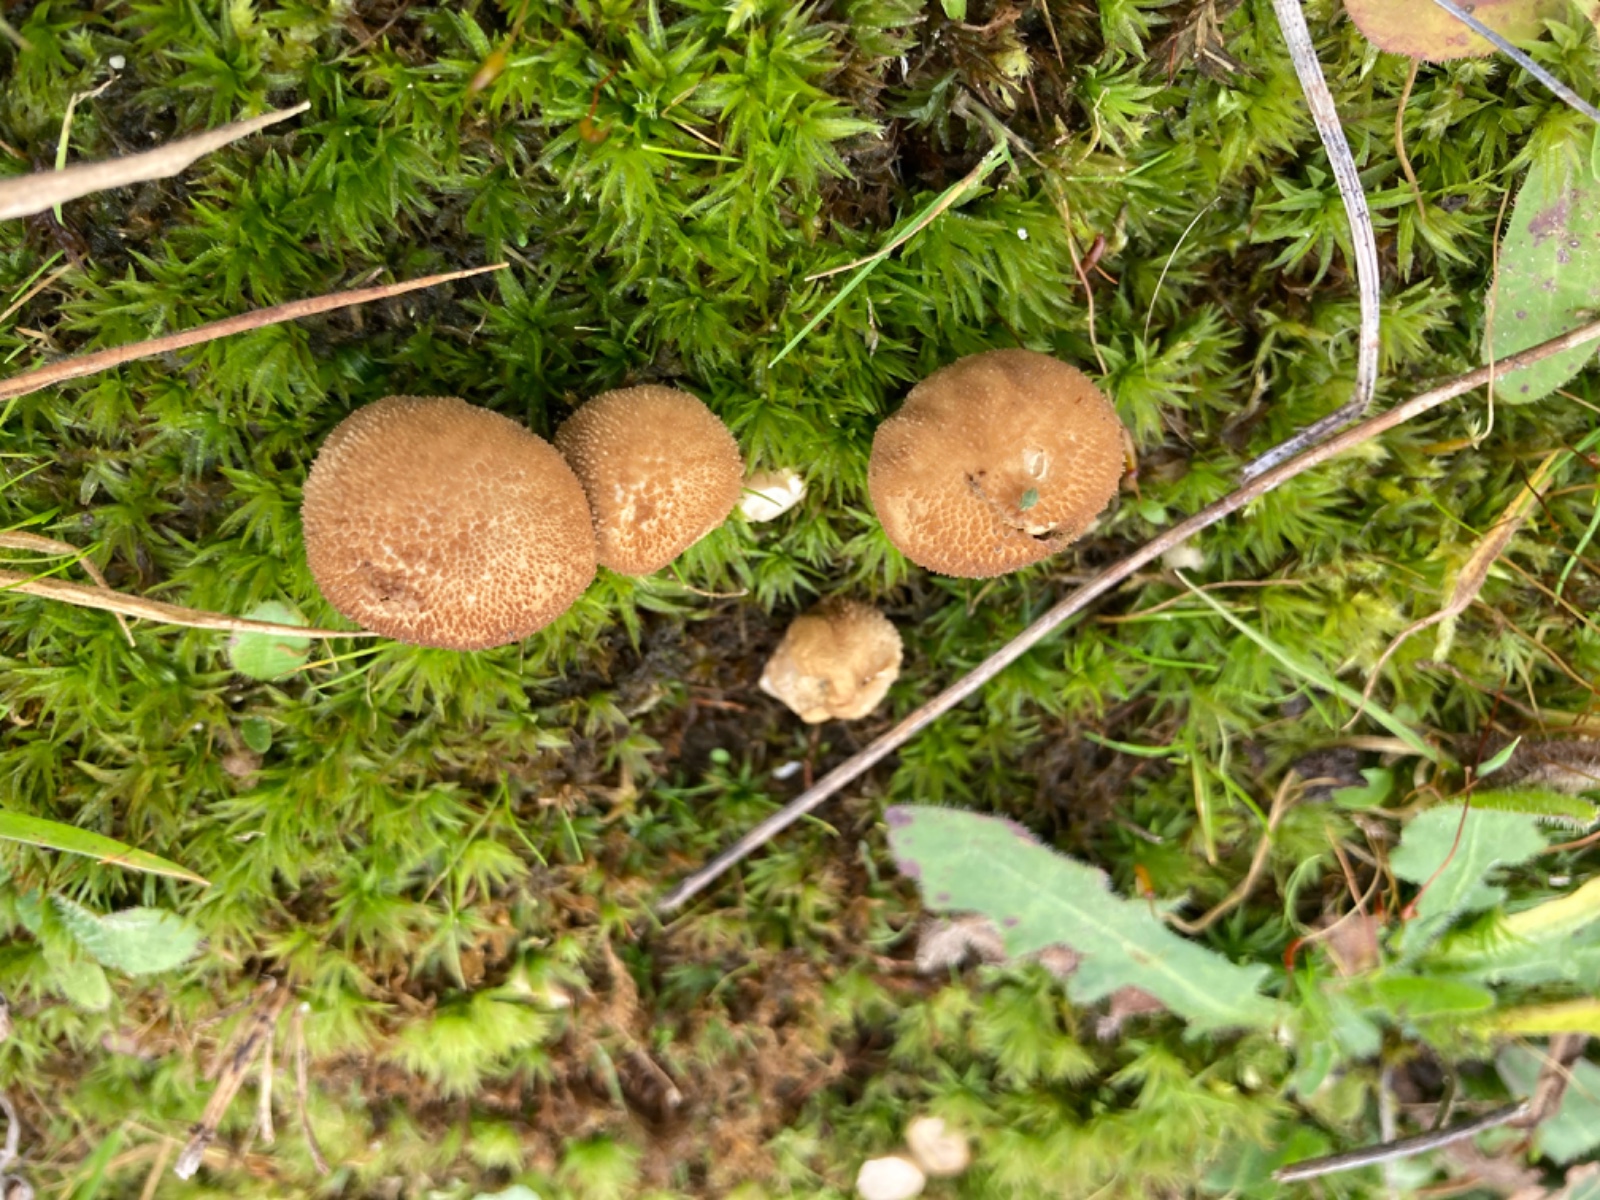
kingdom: Fungi
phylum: Basidiomycota
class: Agaricomycetes
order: Agaricales
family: Lycoperdaceae
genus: Lycoperdon
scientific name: Lycoperdon nigrescens
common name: sortagtig støvbold
